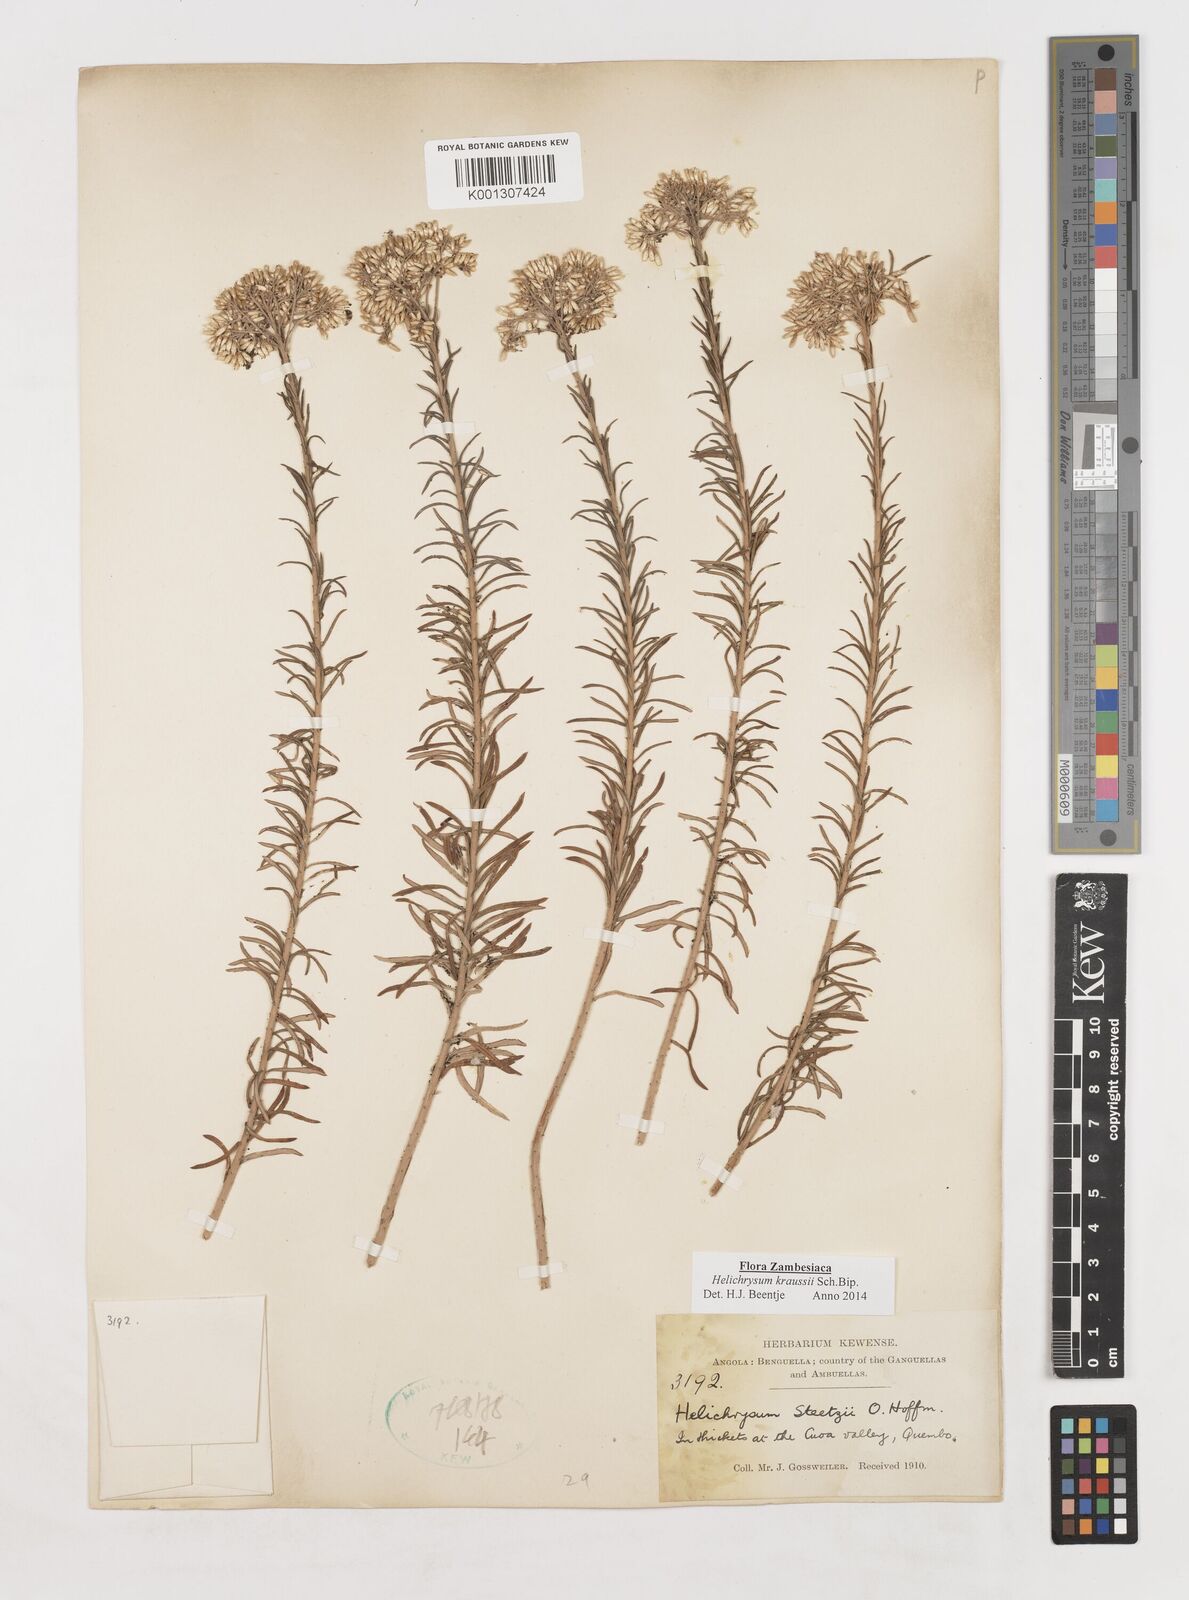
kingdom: Plantae
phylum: Tracheophyta
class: Magnoliopsida
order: Asterales
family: Asteraceae
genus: Helichrysum
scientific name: Helichrysum kraussii
